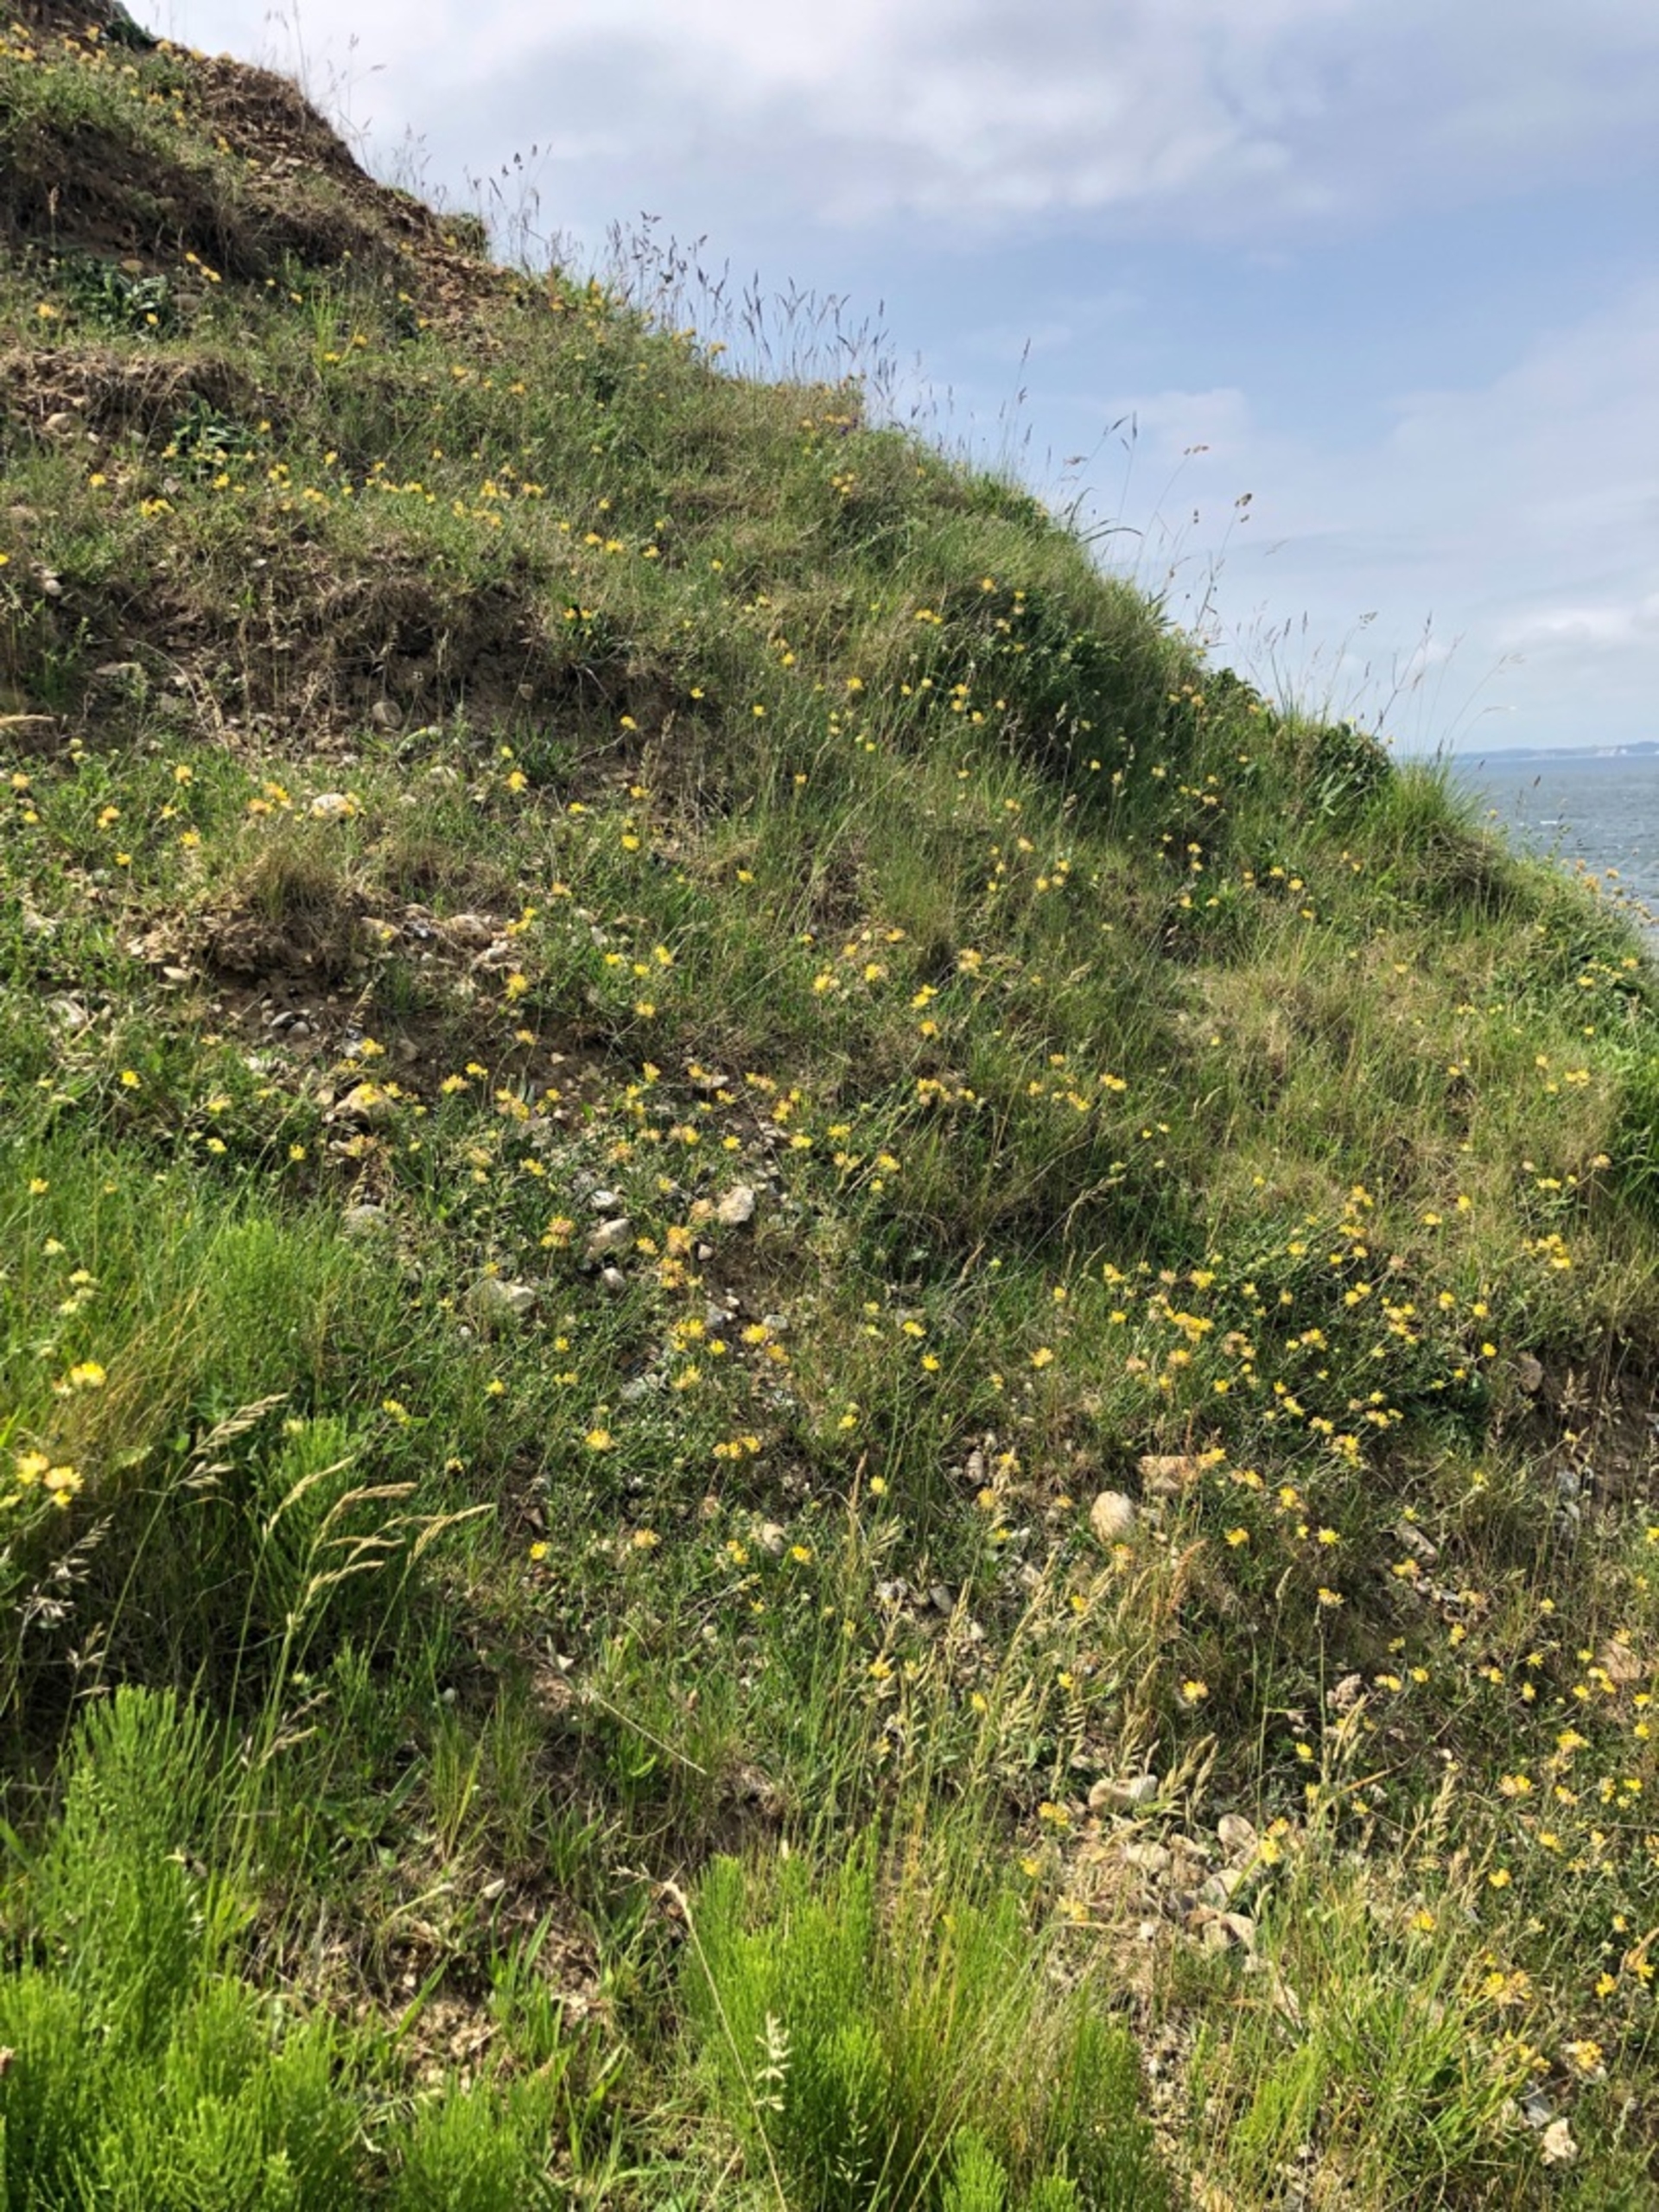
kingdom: Animalia
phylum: Arthropoda
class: Insecta
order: Lepidoptera
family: Lycaenidae
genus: Cupido
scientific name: Cupido minimus
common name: Dværgblåfugl
